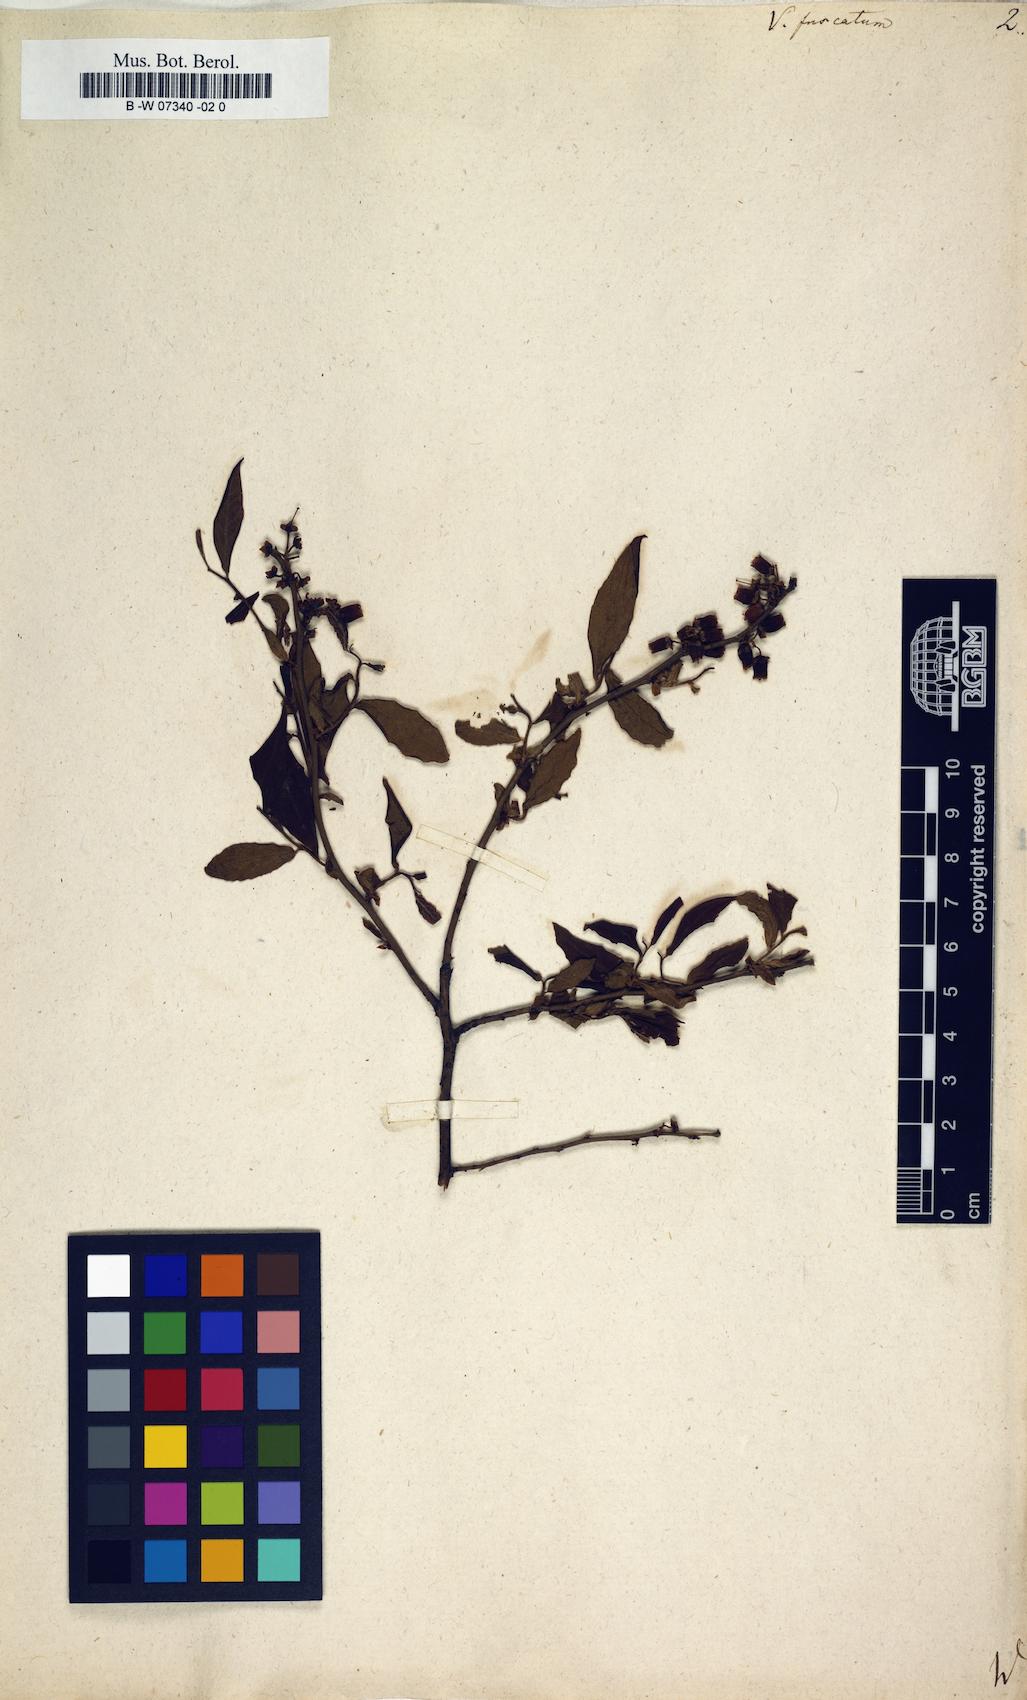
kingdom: Plantae
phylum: Tracheophyta
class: Magnoliopsida
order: Ericales
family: Ericaceae
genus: Vaccinium
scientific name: Vaccinium corymbosum
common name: Blueberry
